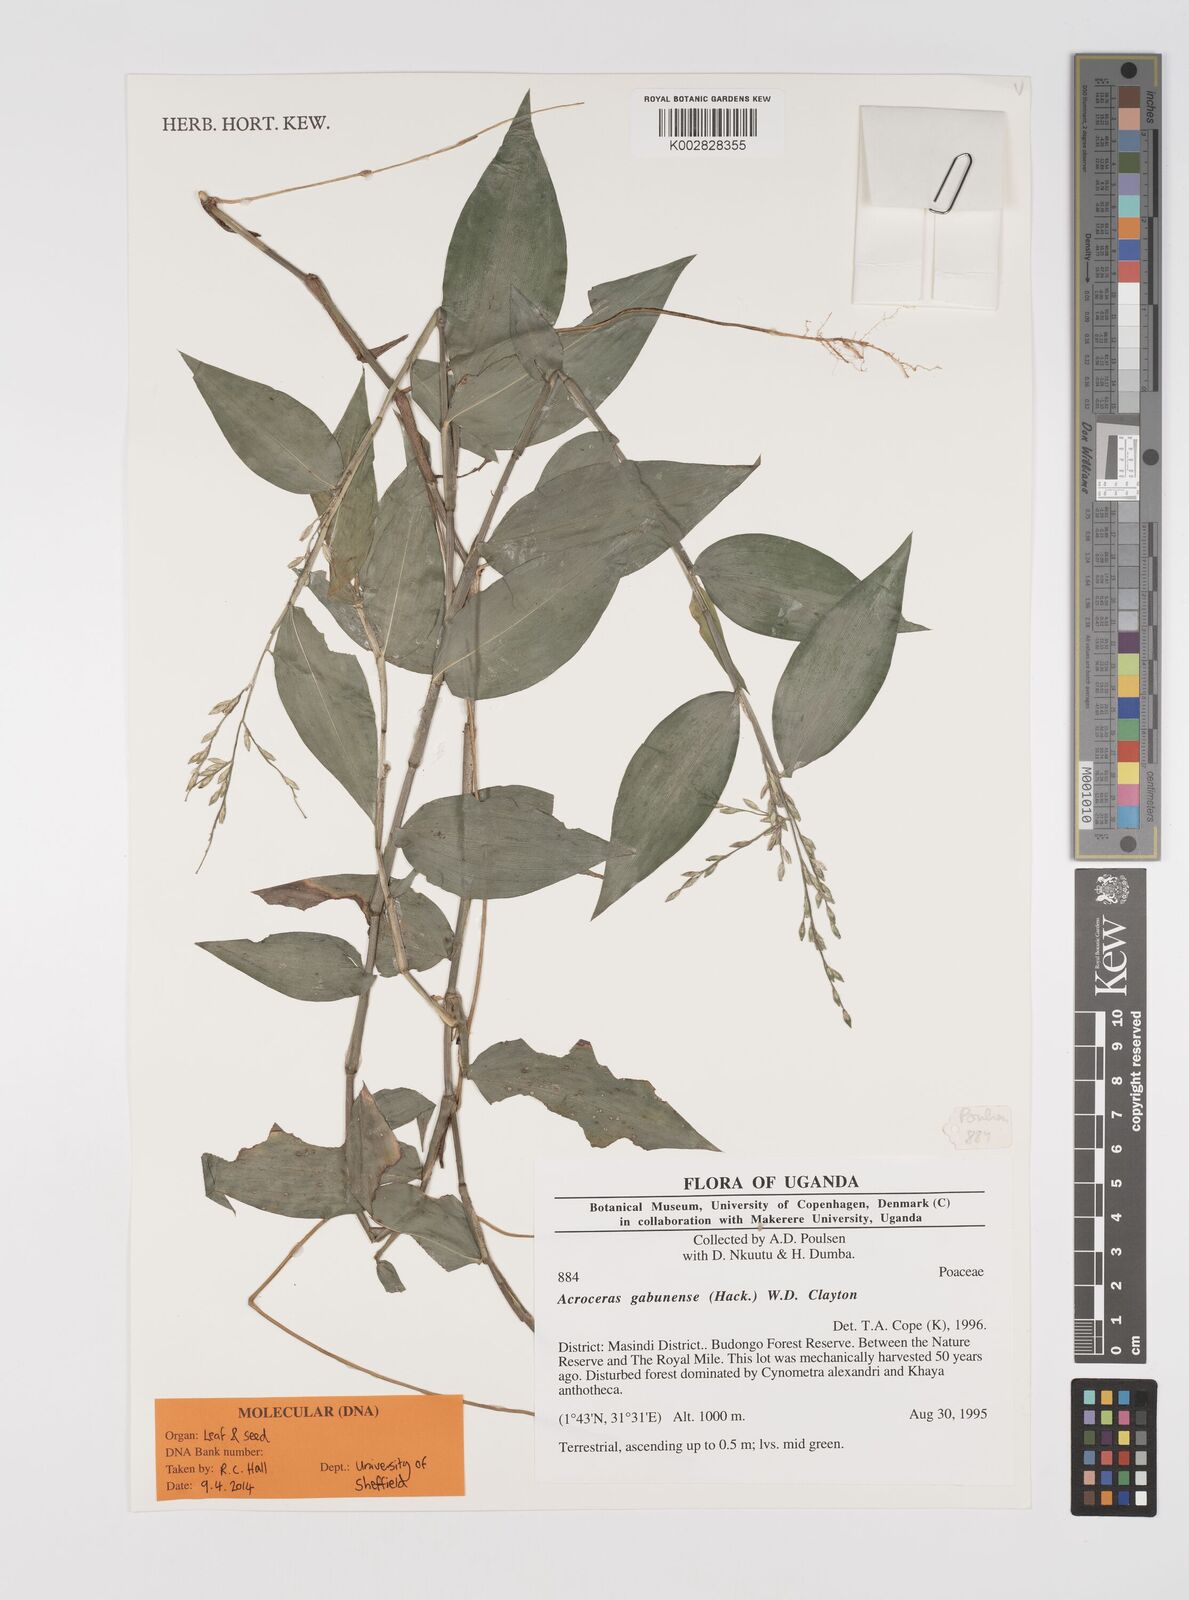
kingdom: Plantae
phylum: Tracheophyta
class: Liliopsida
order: Poales
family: Poaceae
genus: Acroceras
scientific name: Acroceras gabunense
